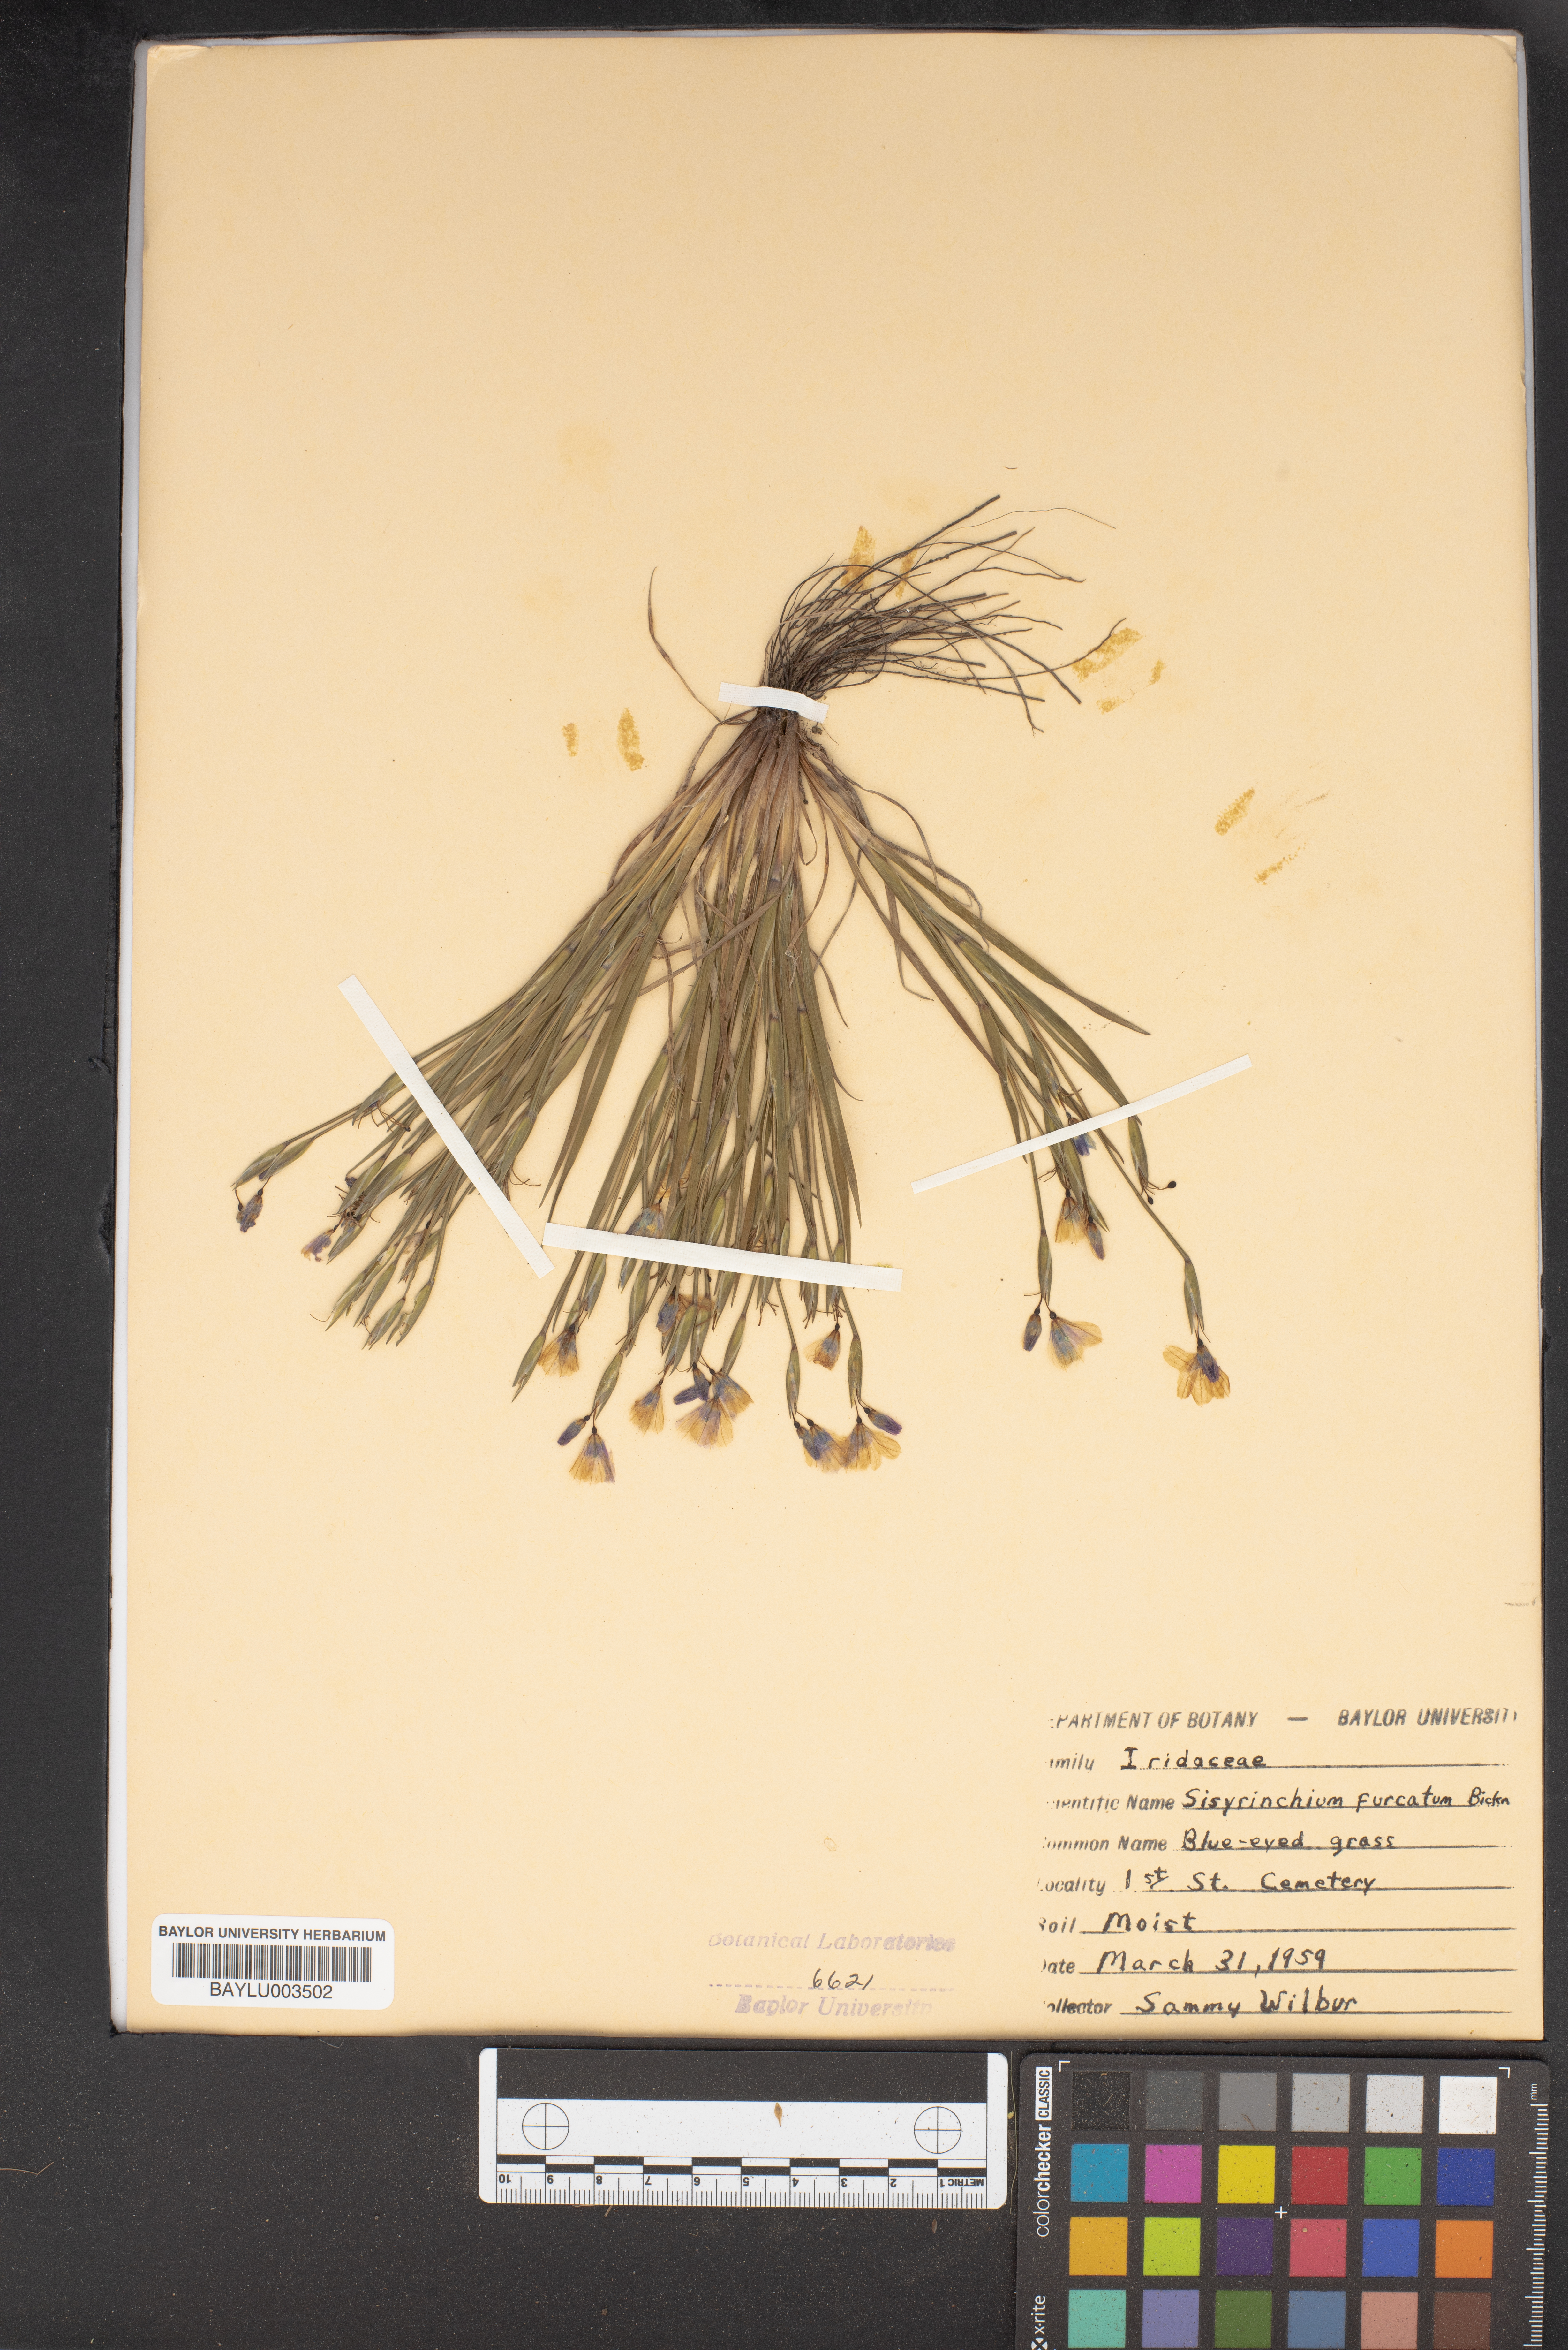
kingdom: Plantae
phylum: Tracheophyta
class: Liliopsida
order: Asparagales
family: Iridaceae
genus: Sisyrinchium
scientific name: Sisyrinchium fuscatum
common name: Coastal plain blue-eyed-grass
